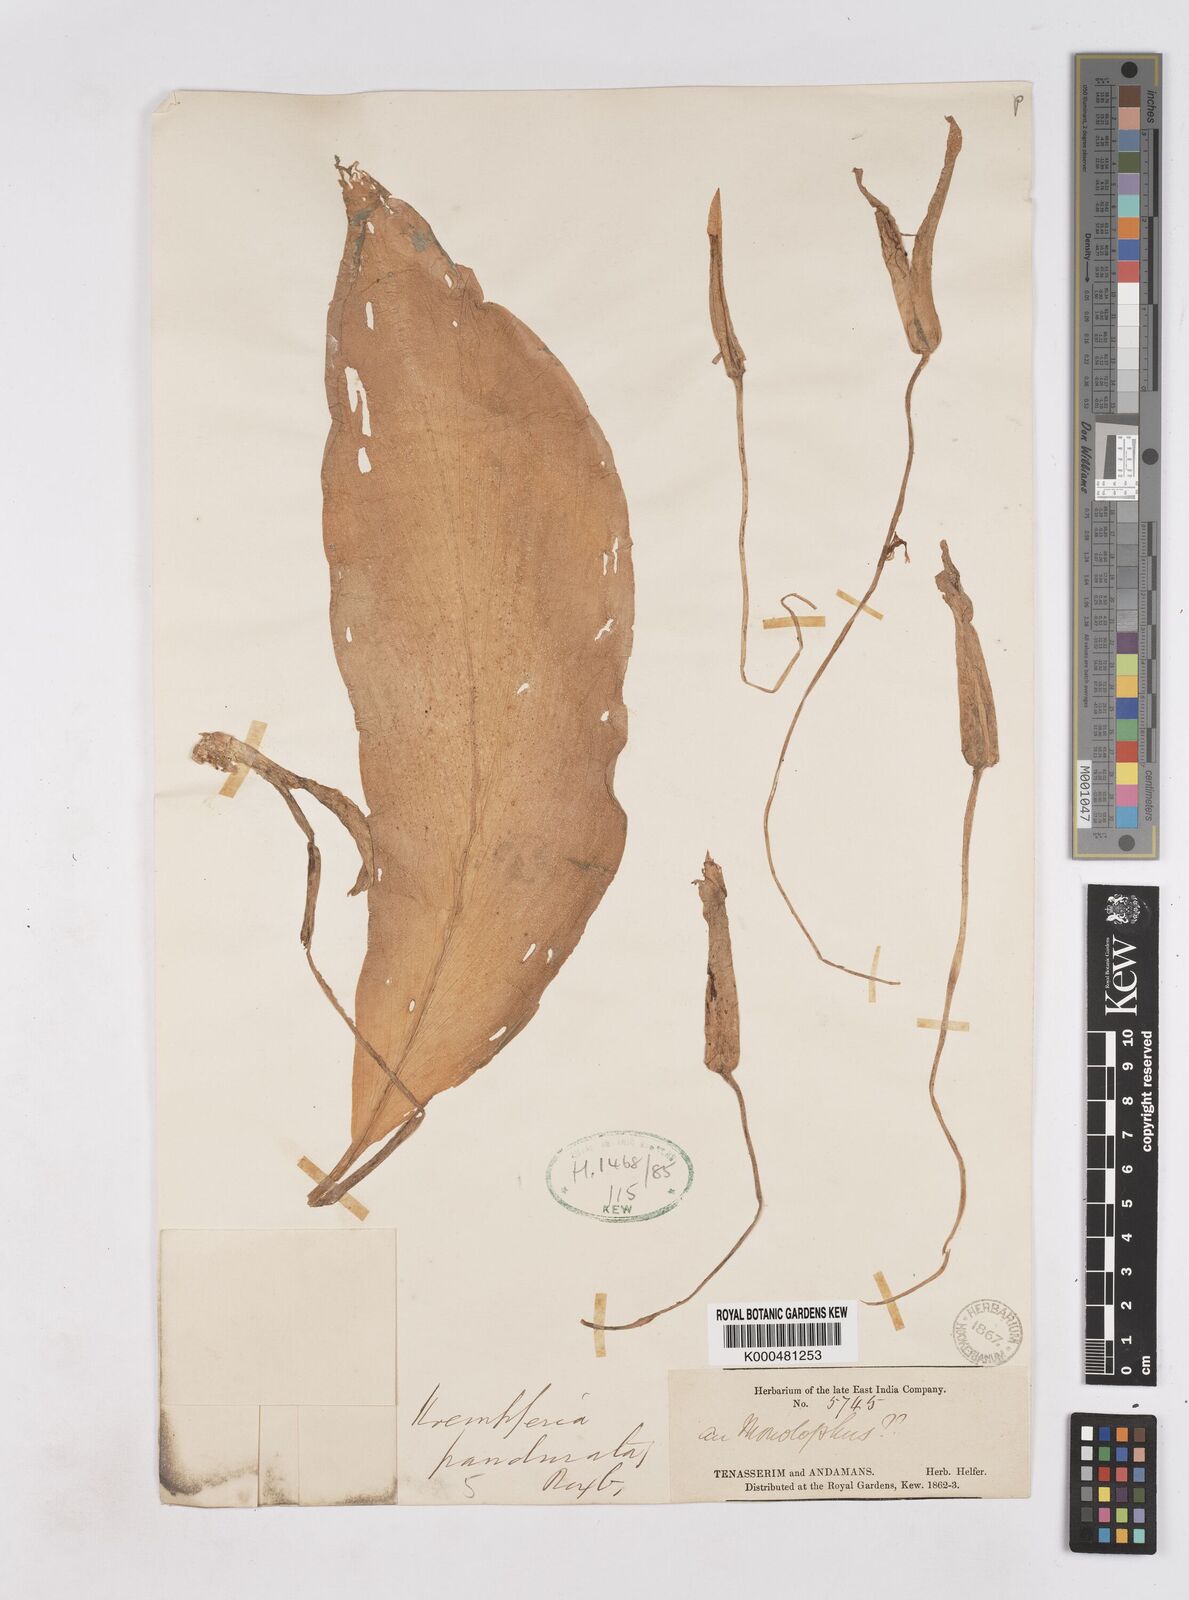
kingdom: Plantae
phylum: Tracheophyta
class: Liliopsida
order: Zingiberales
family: Zingiberaceae
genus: Boesenbergia
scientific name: Boesenbergia rotunda
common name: Chinese ginger
